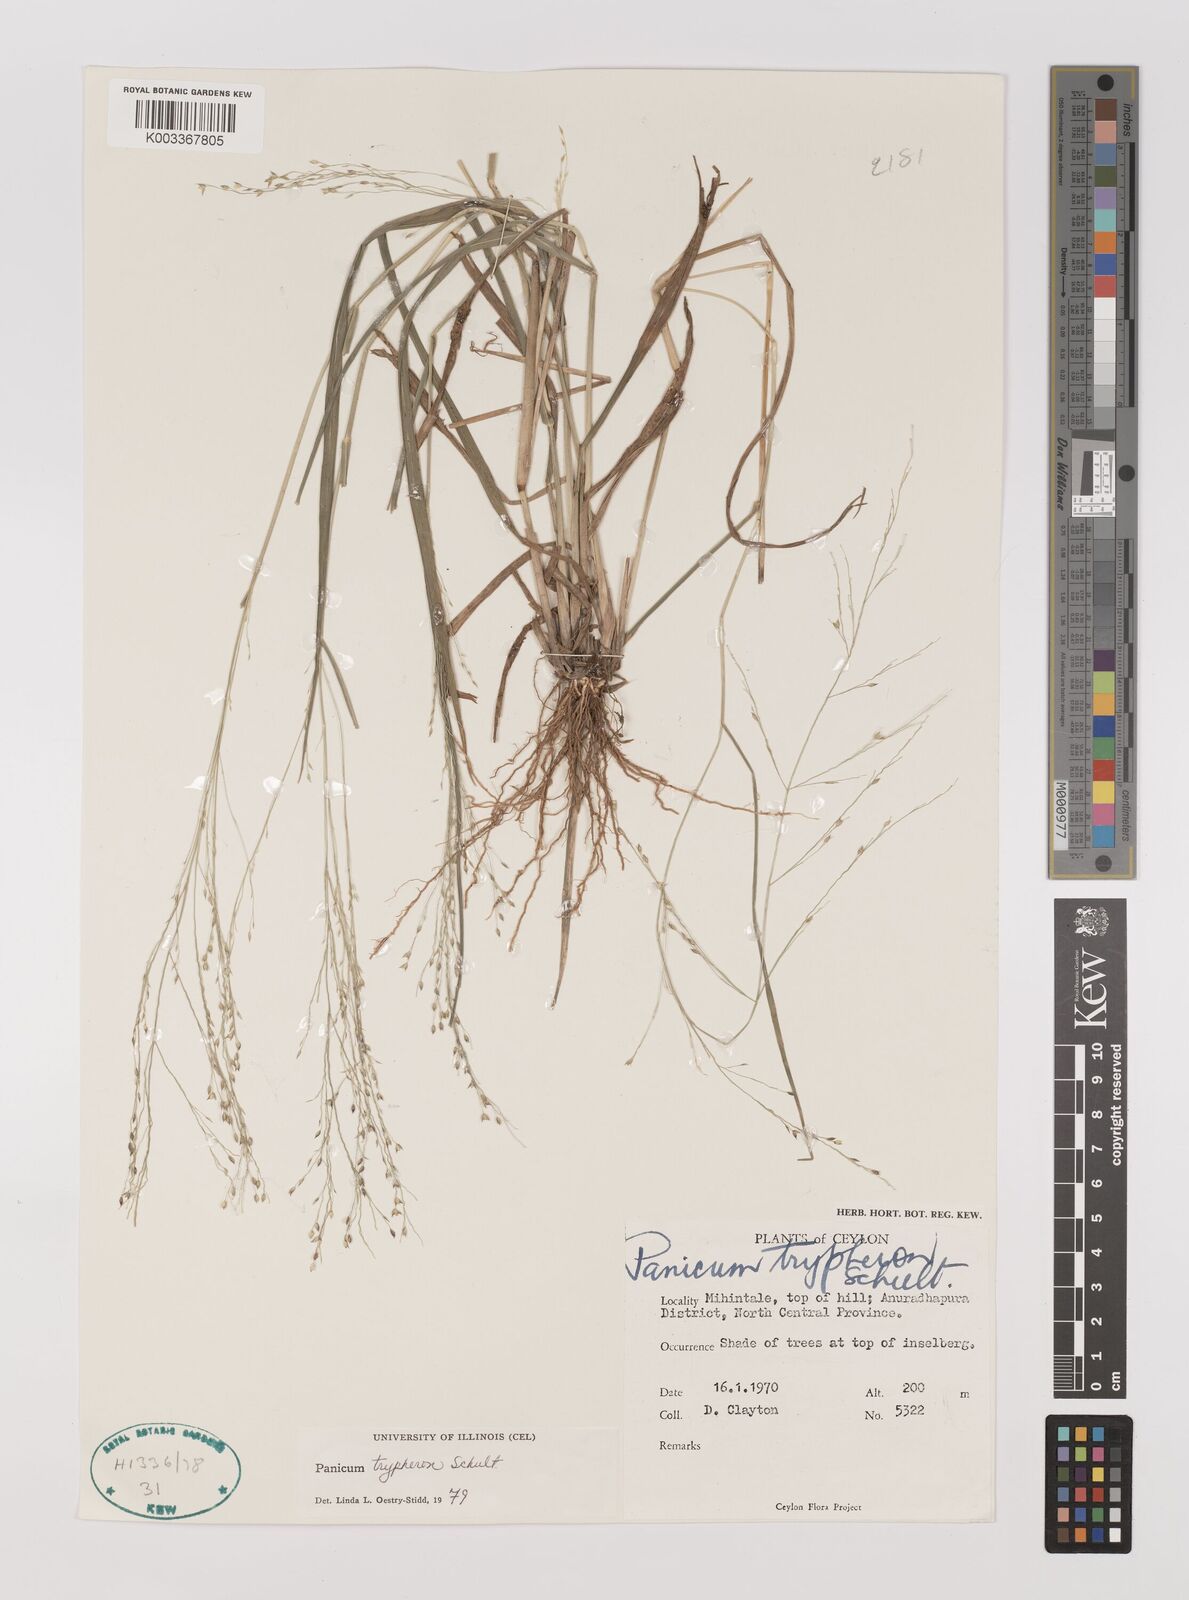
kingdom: Plantae
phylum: Tracheophyta
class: Liliopsida
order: Poales
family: Poaceae
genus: Panicum
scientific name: Panicum curviflorum
